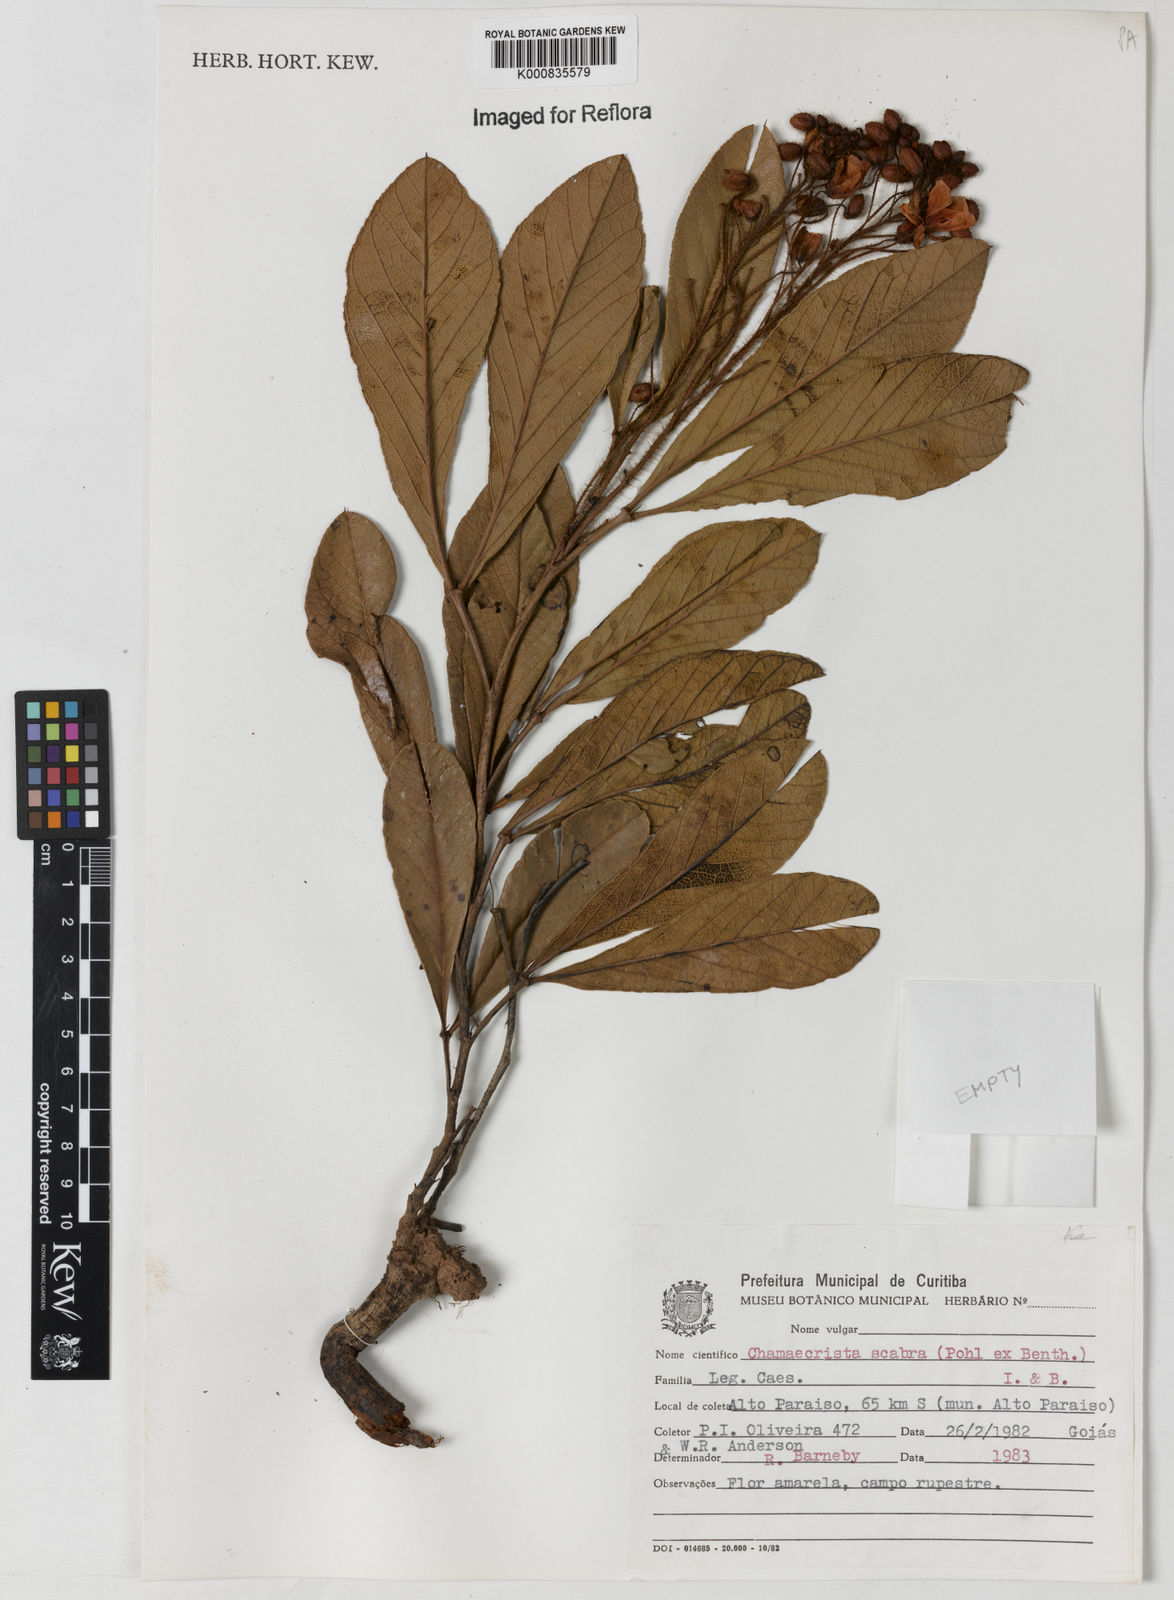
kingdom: Plantae
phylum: Tracheophyta
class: Magnoliopsida
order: Fabales
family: Fabaceae
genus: Chamaecrista
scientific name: Chamaecrista scabra
